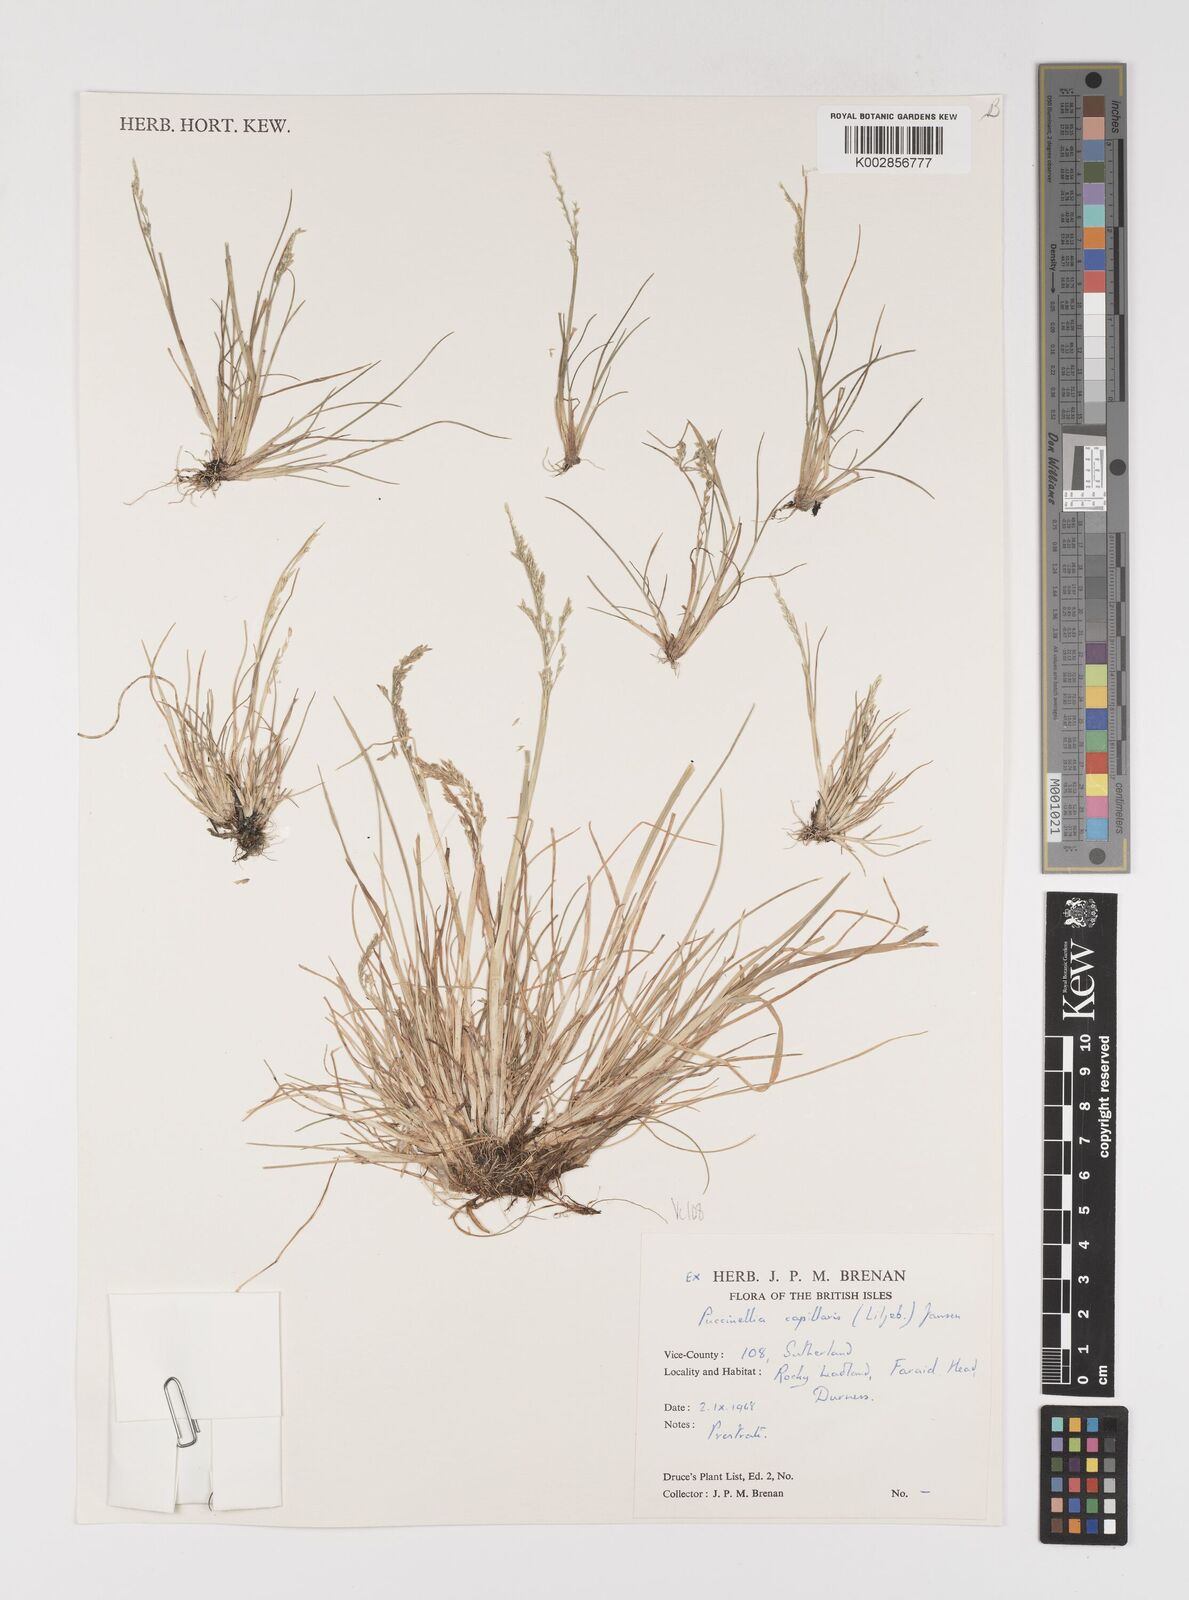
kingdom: Plantae
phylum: Tracheophyta
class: Liliopsida
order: Poales
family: Poaceae
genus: Puccinellia
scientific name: Puccinellia distans
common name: Weeping alkaligrass
